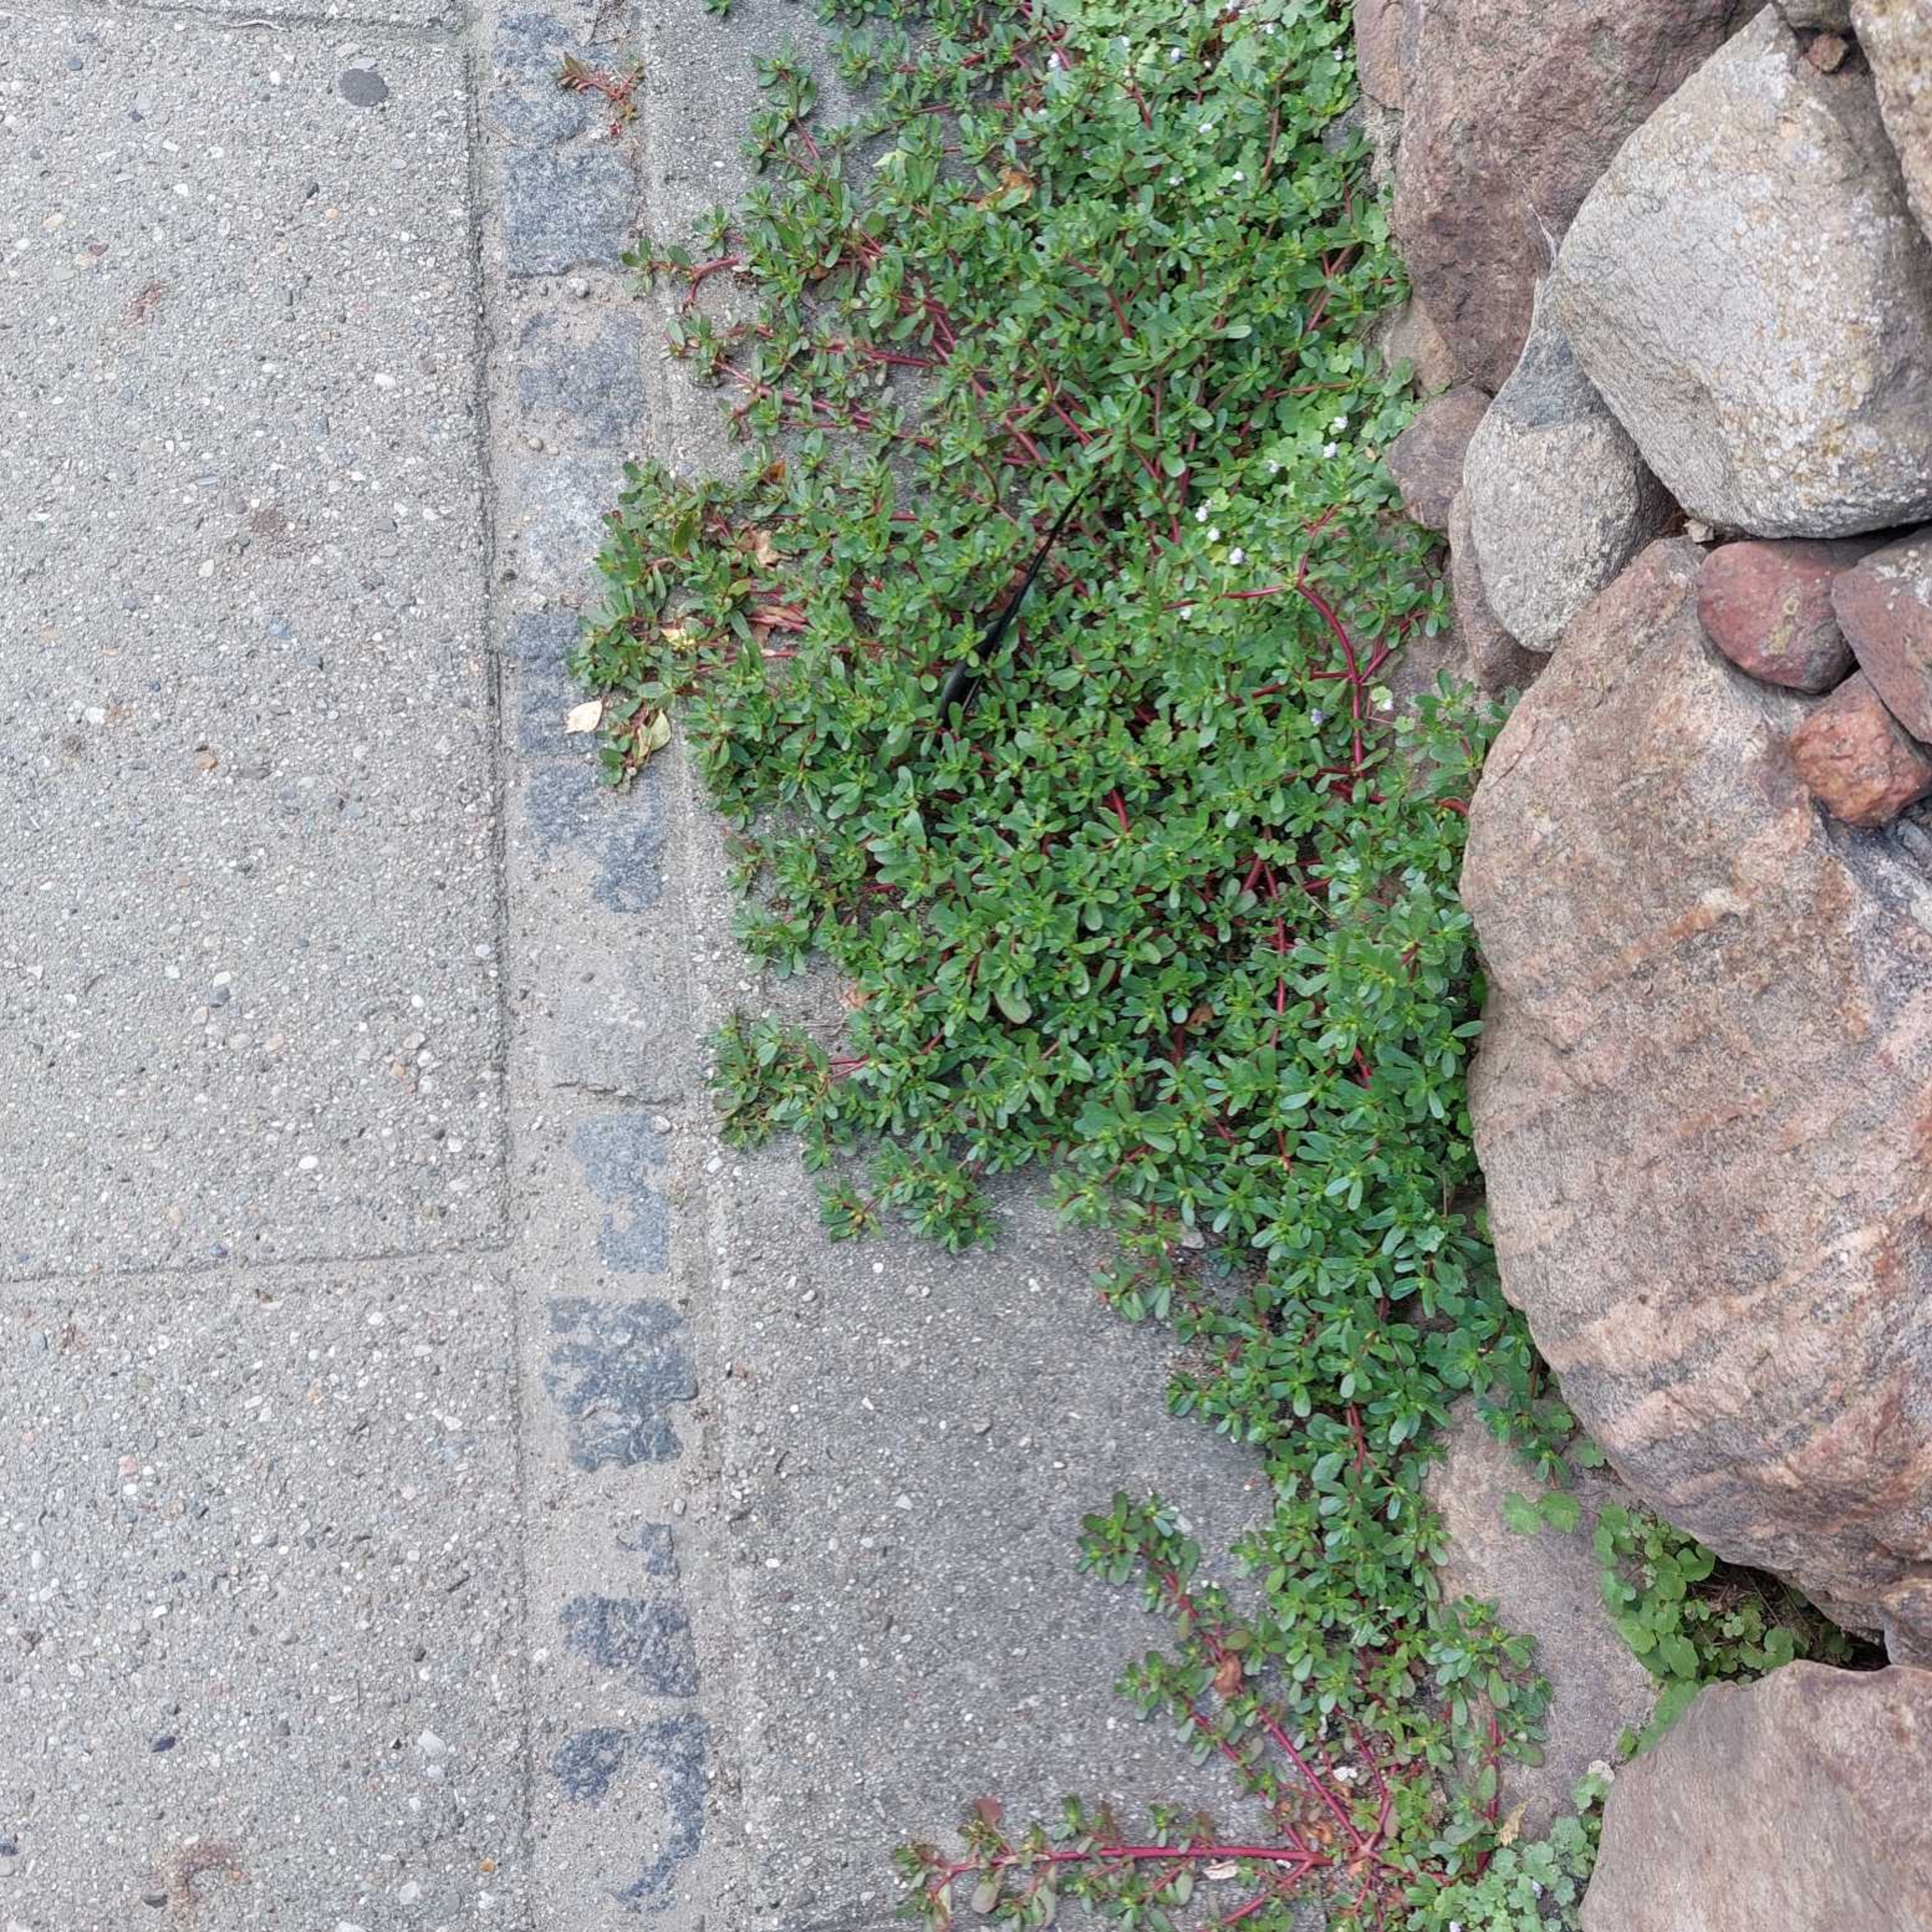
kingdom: Plantae
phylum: Tracheophyta
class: Magnoliopsida
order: Caryophyllales
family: Portulacaceae
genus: Portulaca
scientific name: Portulaca oleracea
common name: Vild portulak
